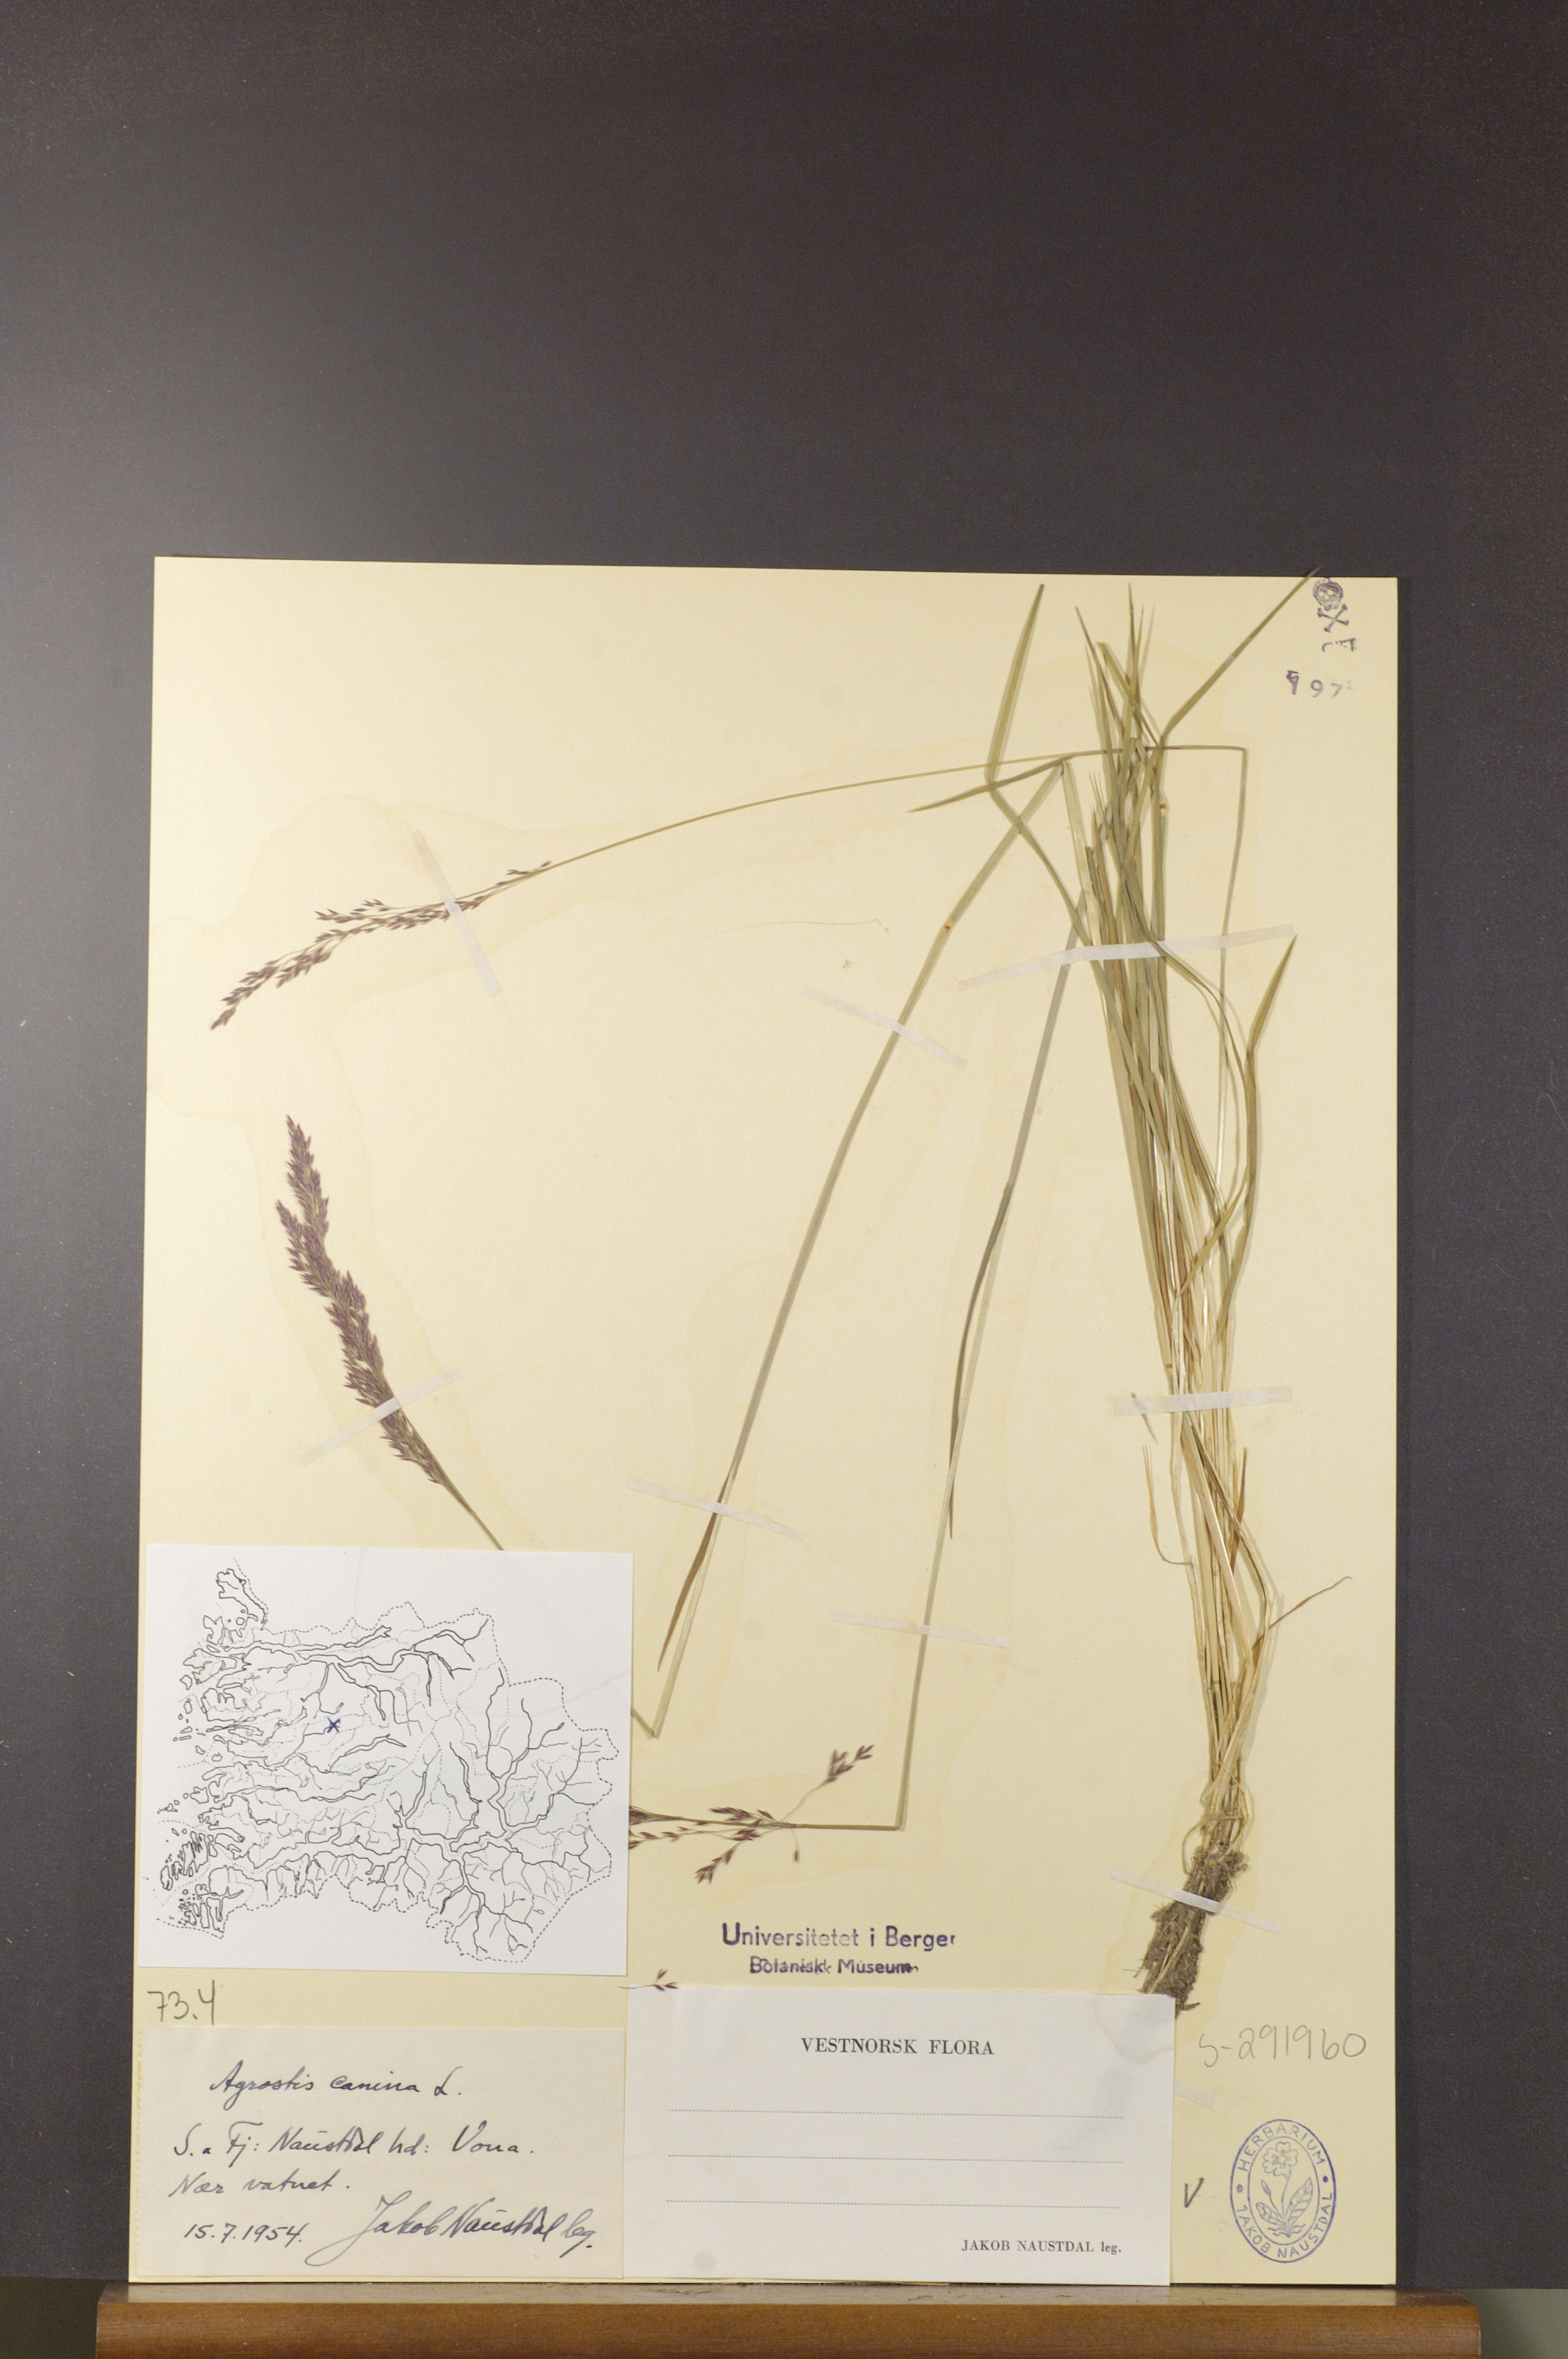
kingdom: Plantae
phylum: Tracheophyta
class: Liliopsida
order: Poales
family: Poaceae
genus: Agrostis
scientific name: Agrostis canina
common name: Velvet bent
